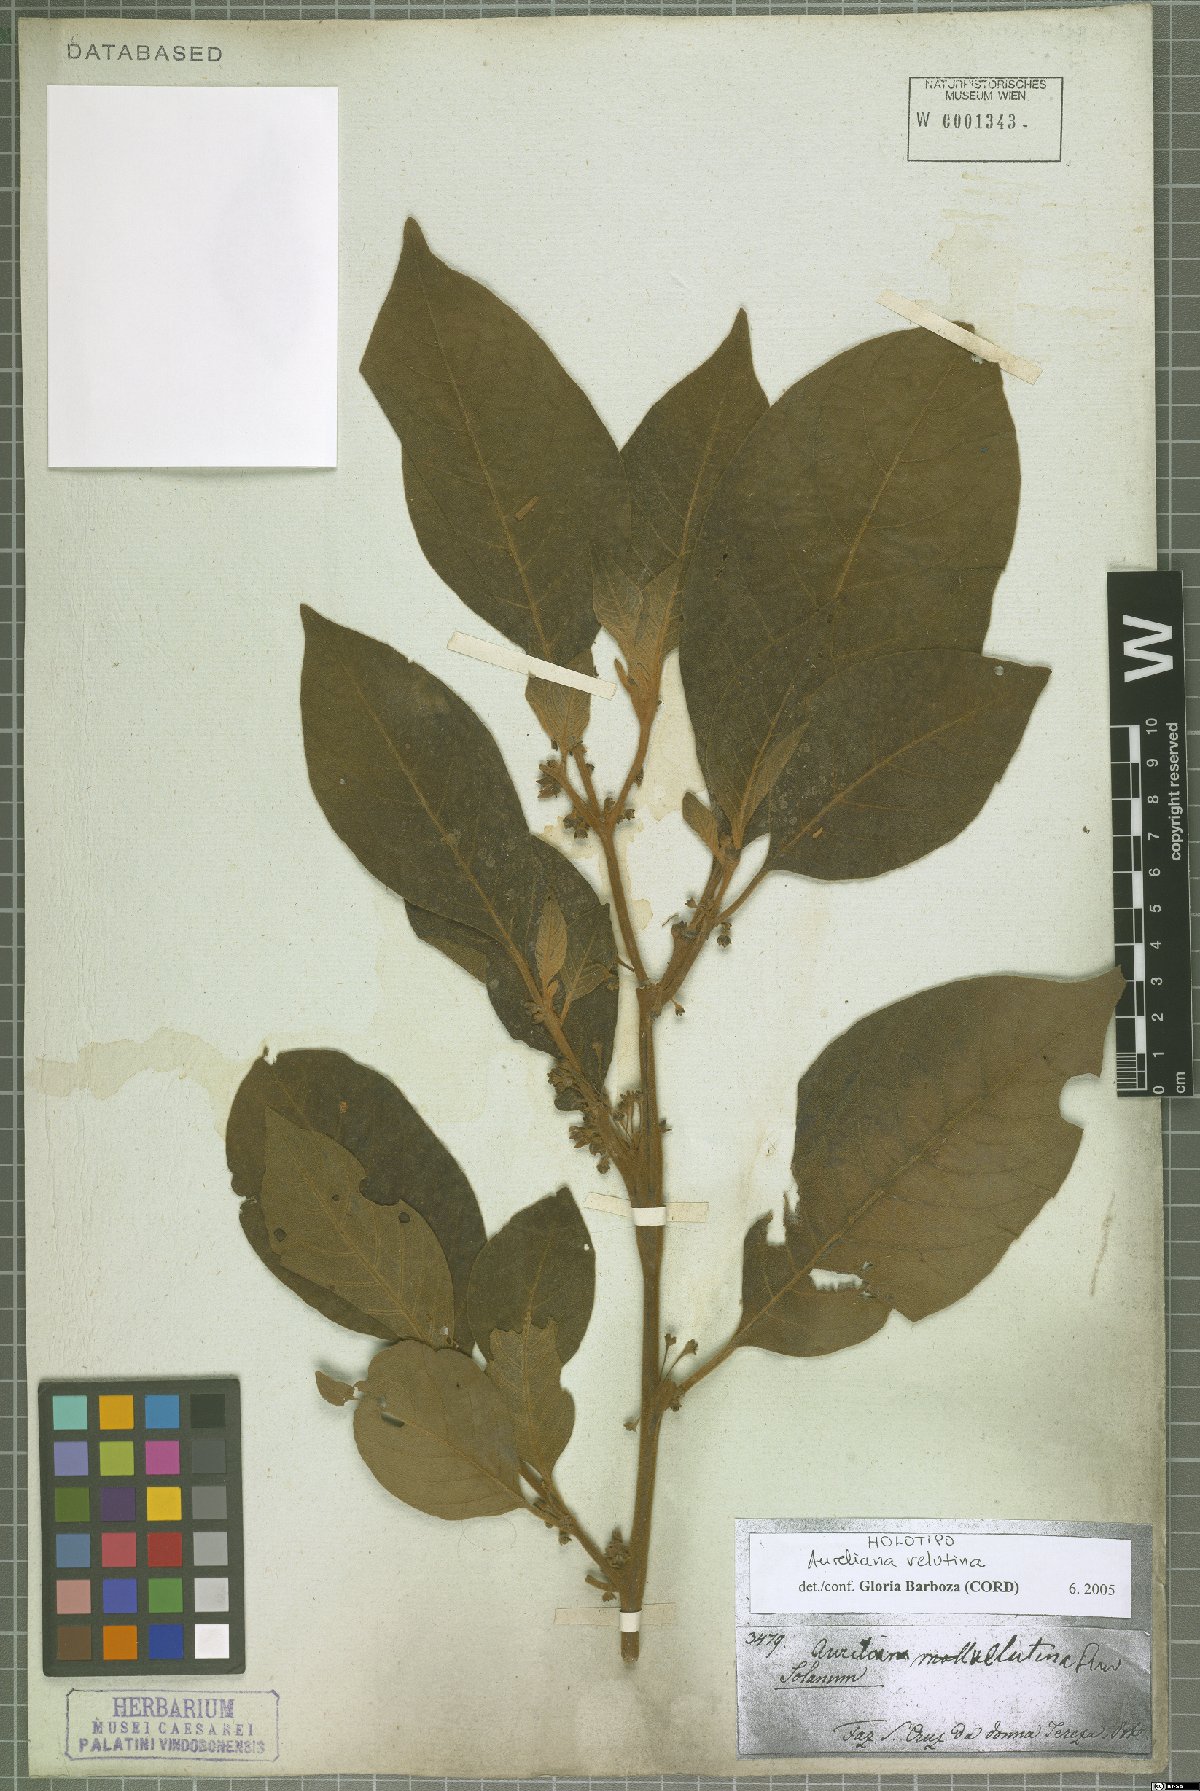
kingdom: Plantae
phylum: Tracheophyta
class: Magnoliopsida
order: Solanales
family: Solanaceae
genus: Athenaea
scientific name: Athenaea velutina
